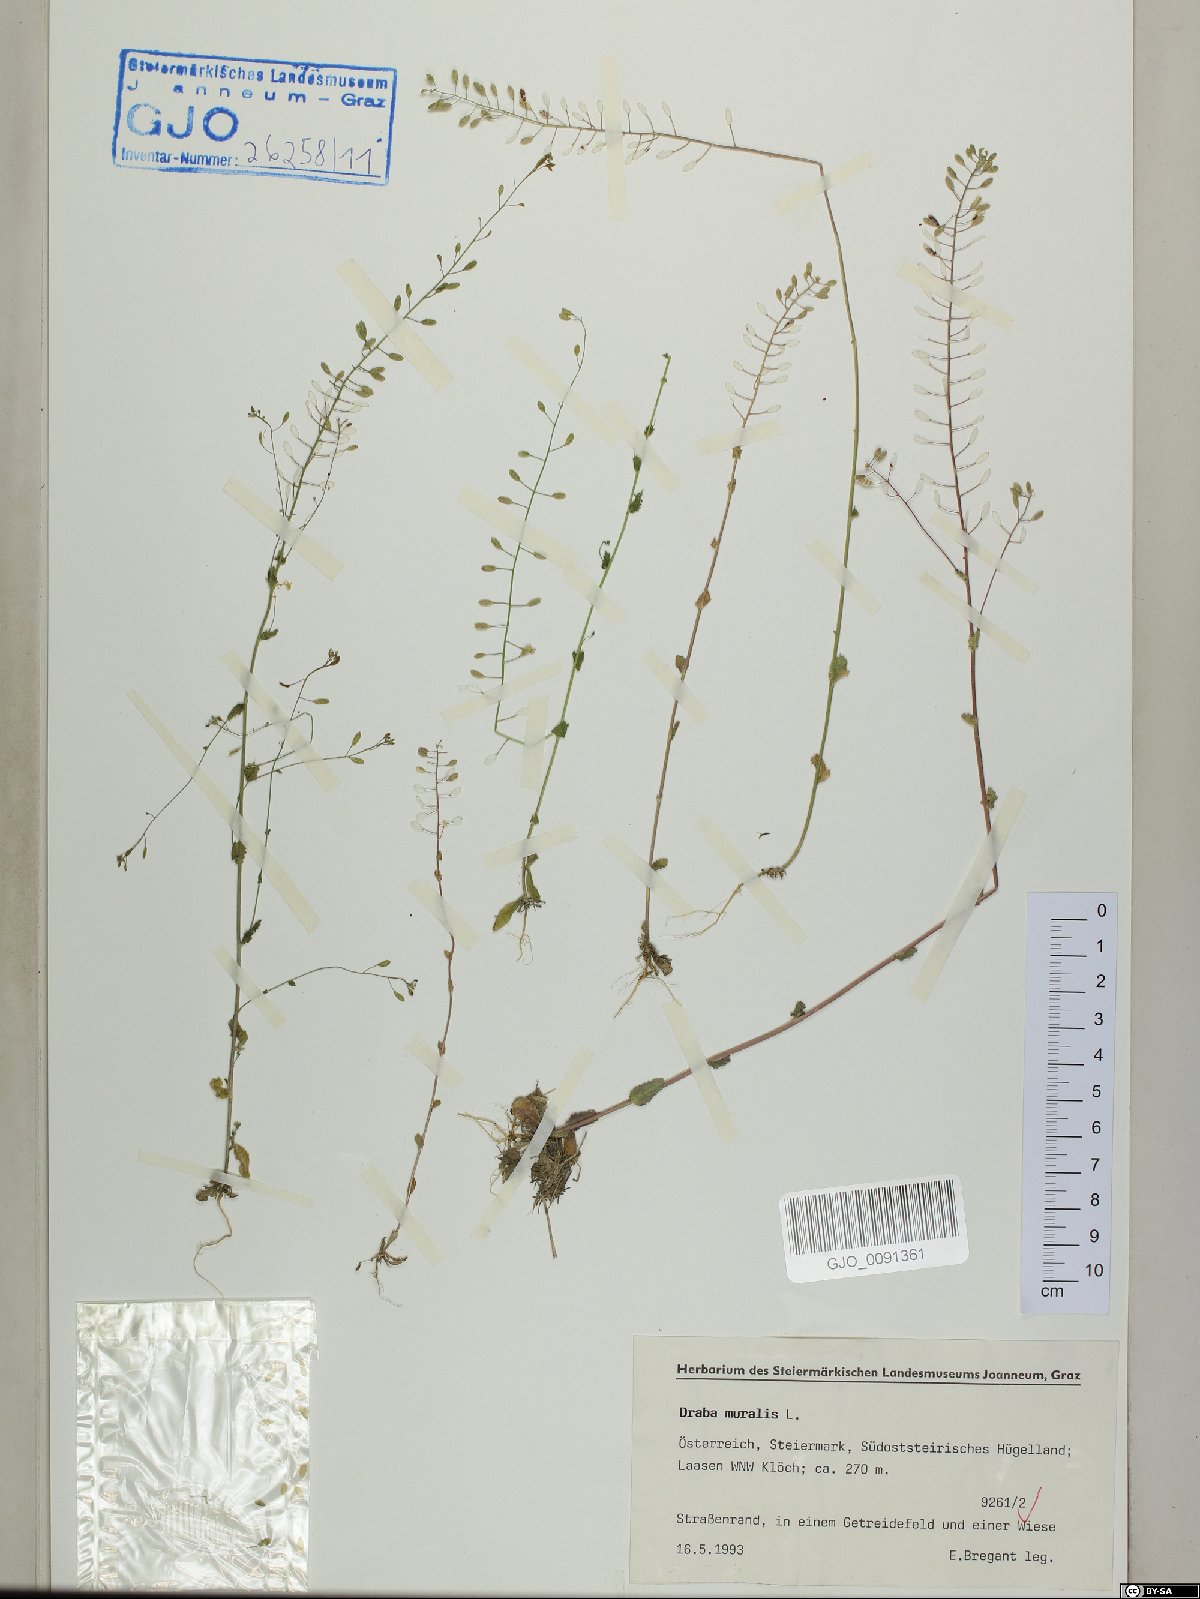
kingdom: Plantae
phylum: Tracheophyta
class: Magnoliopsida
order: Brassicales
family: Brassicaceae
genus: Drabella
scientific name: Drabella muralis
